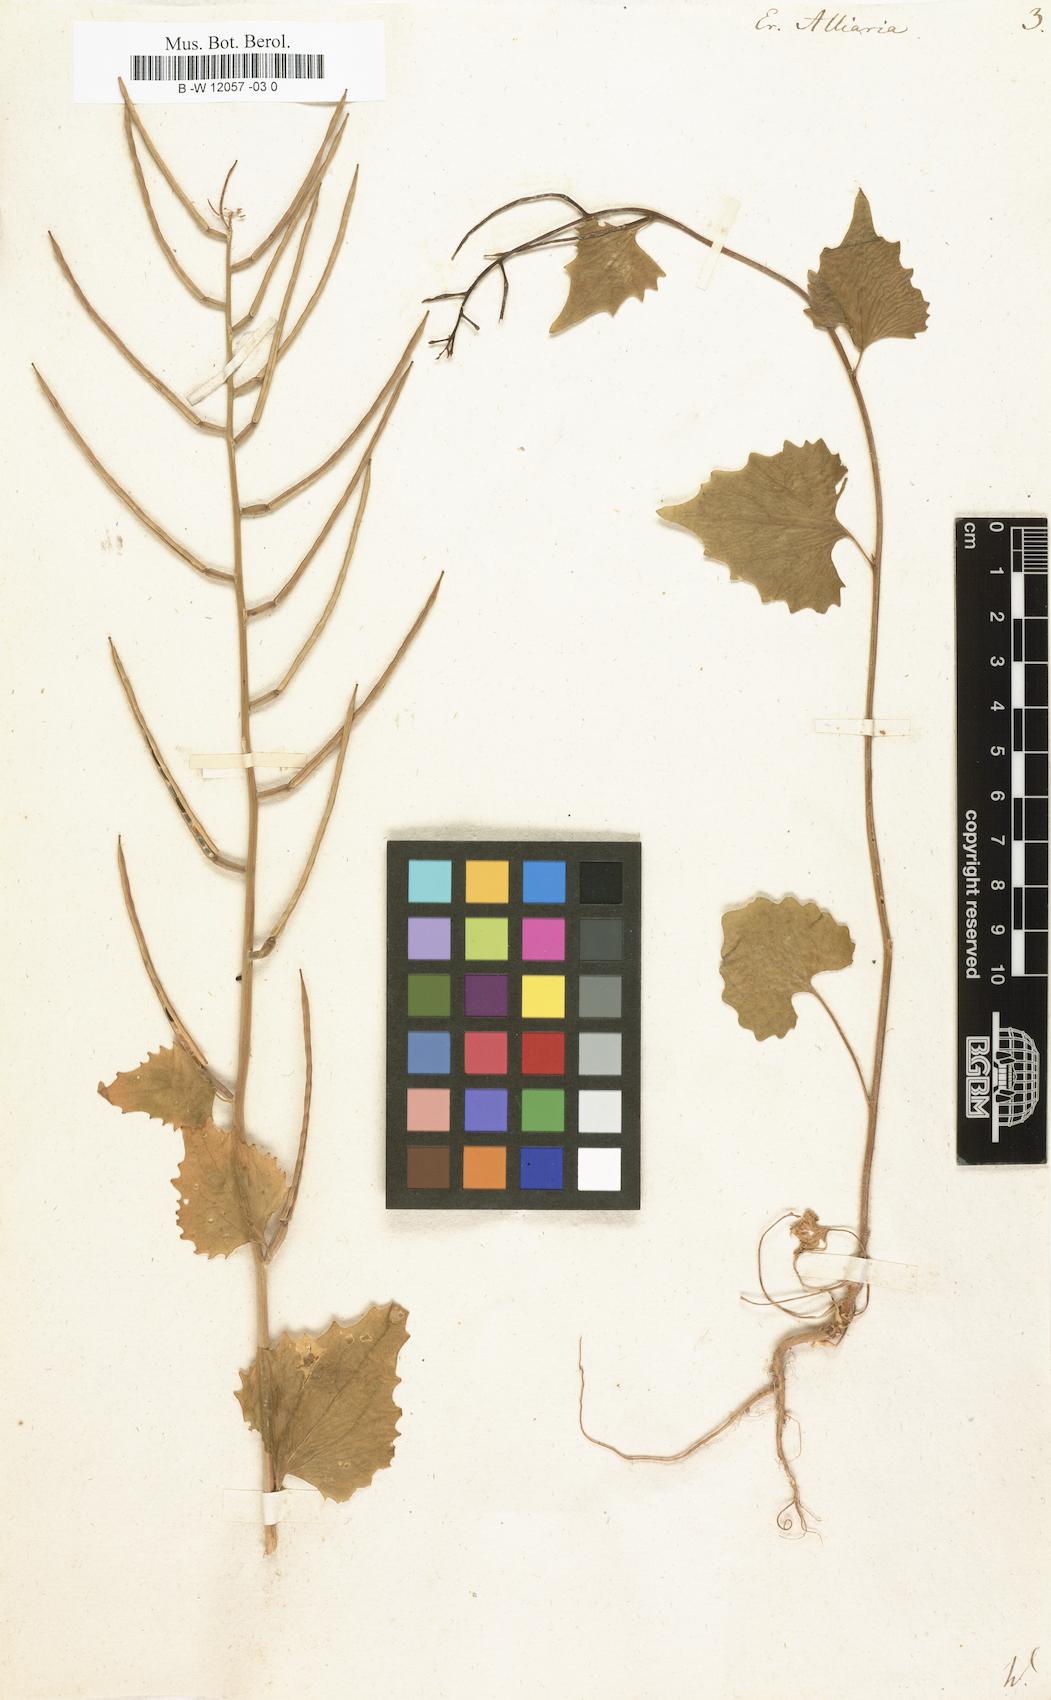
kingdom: Plantae
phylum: Tracheophyta
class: Magnoliopsida
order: Brassicales
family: Brassicaceae
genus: Alliaria
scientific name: Alliaria petiolata
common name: Garlic mustard
